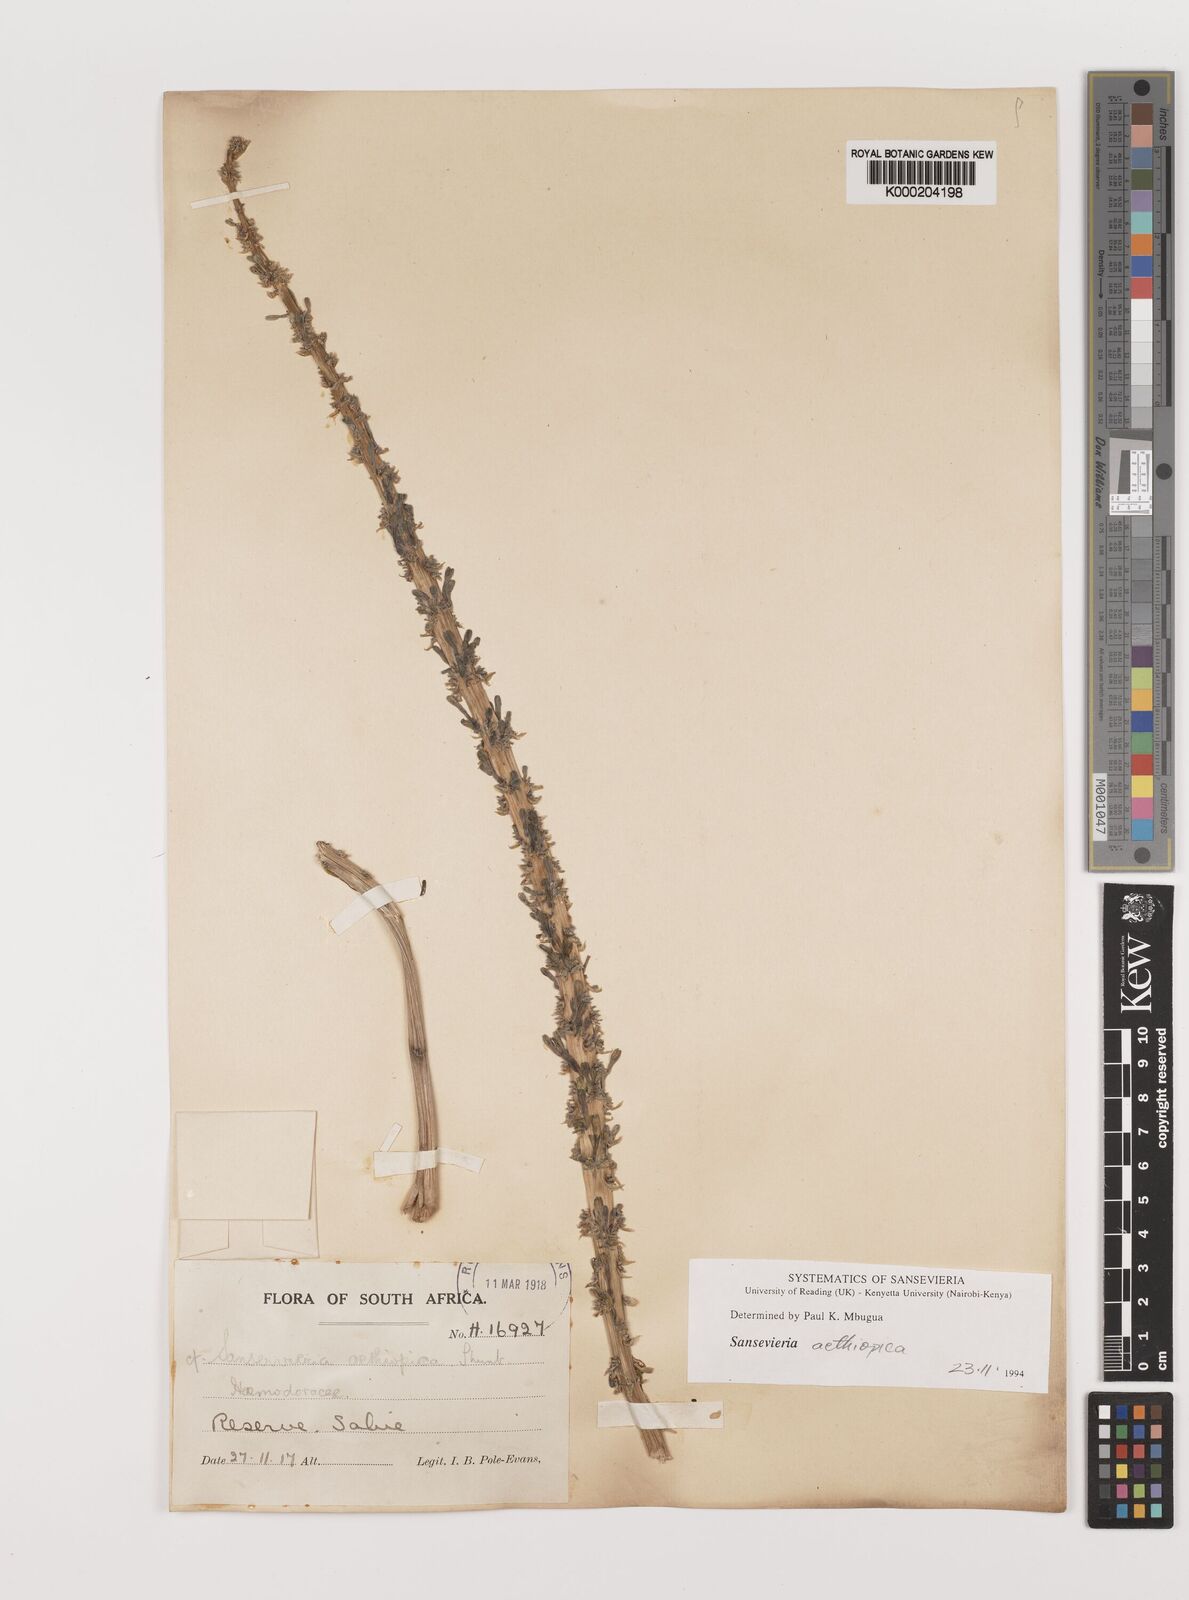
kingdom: Plantae
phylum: Tracheophyta
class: Liliopsida
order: Asparagales
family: Asparagaceae
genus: Dracaena
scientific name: Dracaena aethiopica
